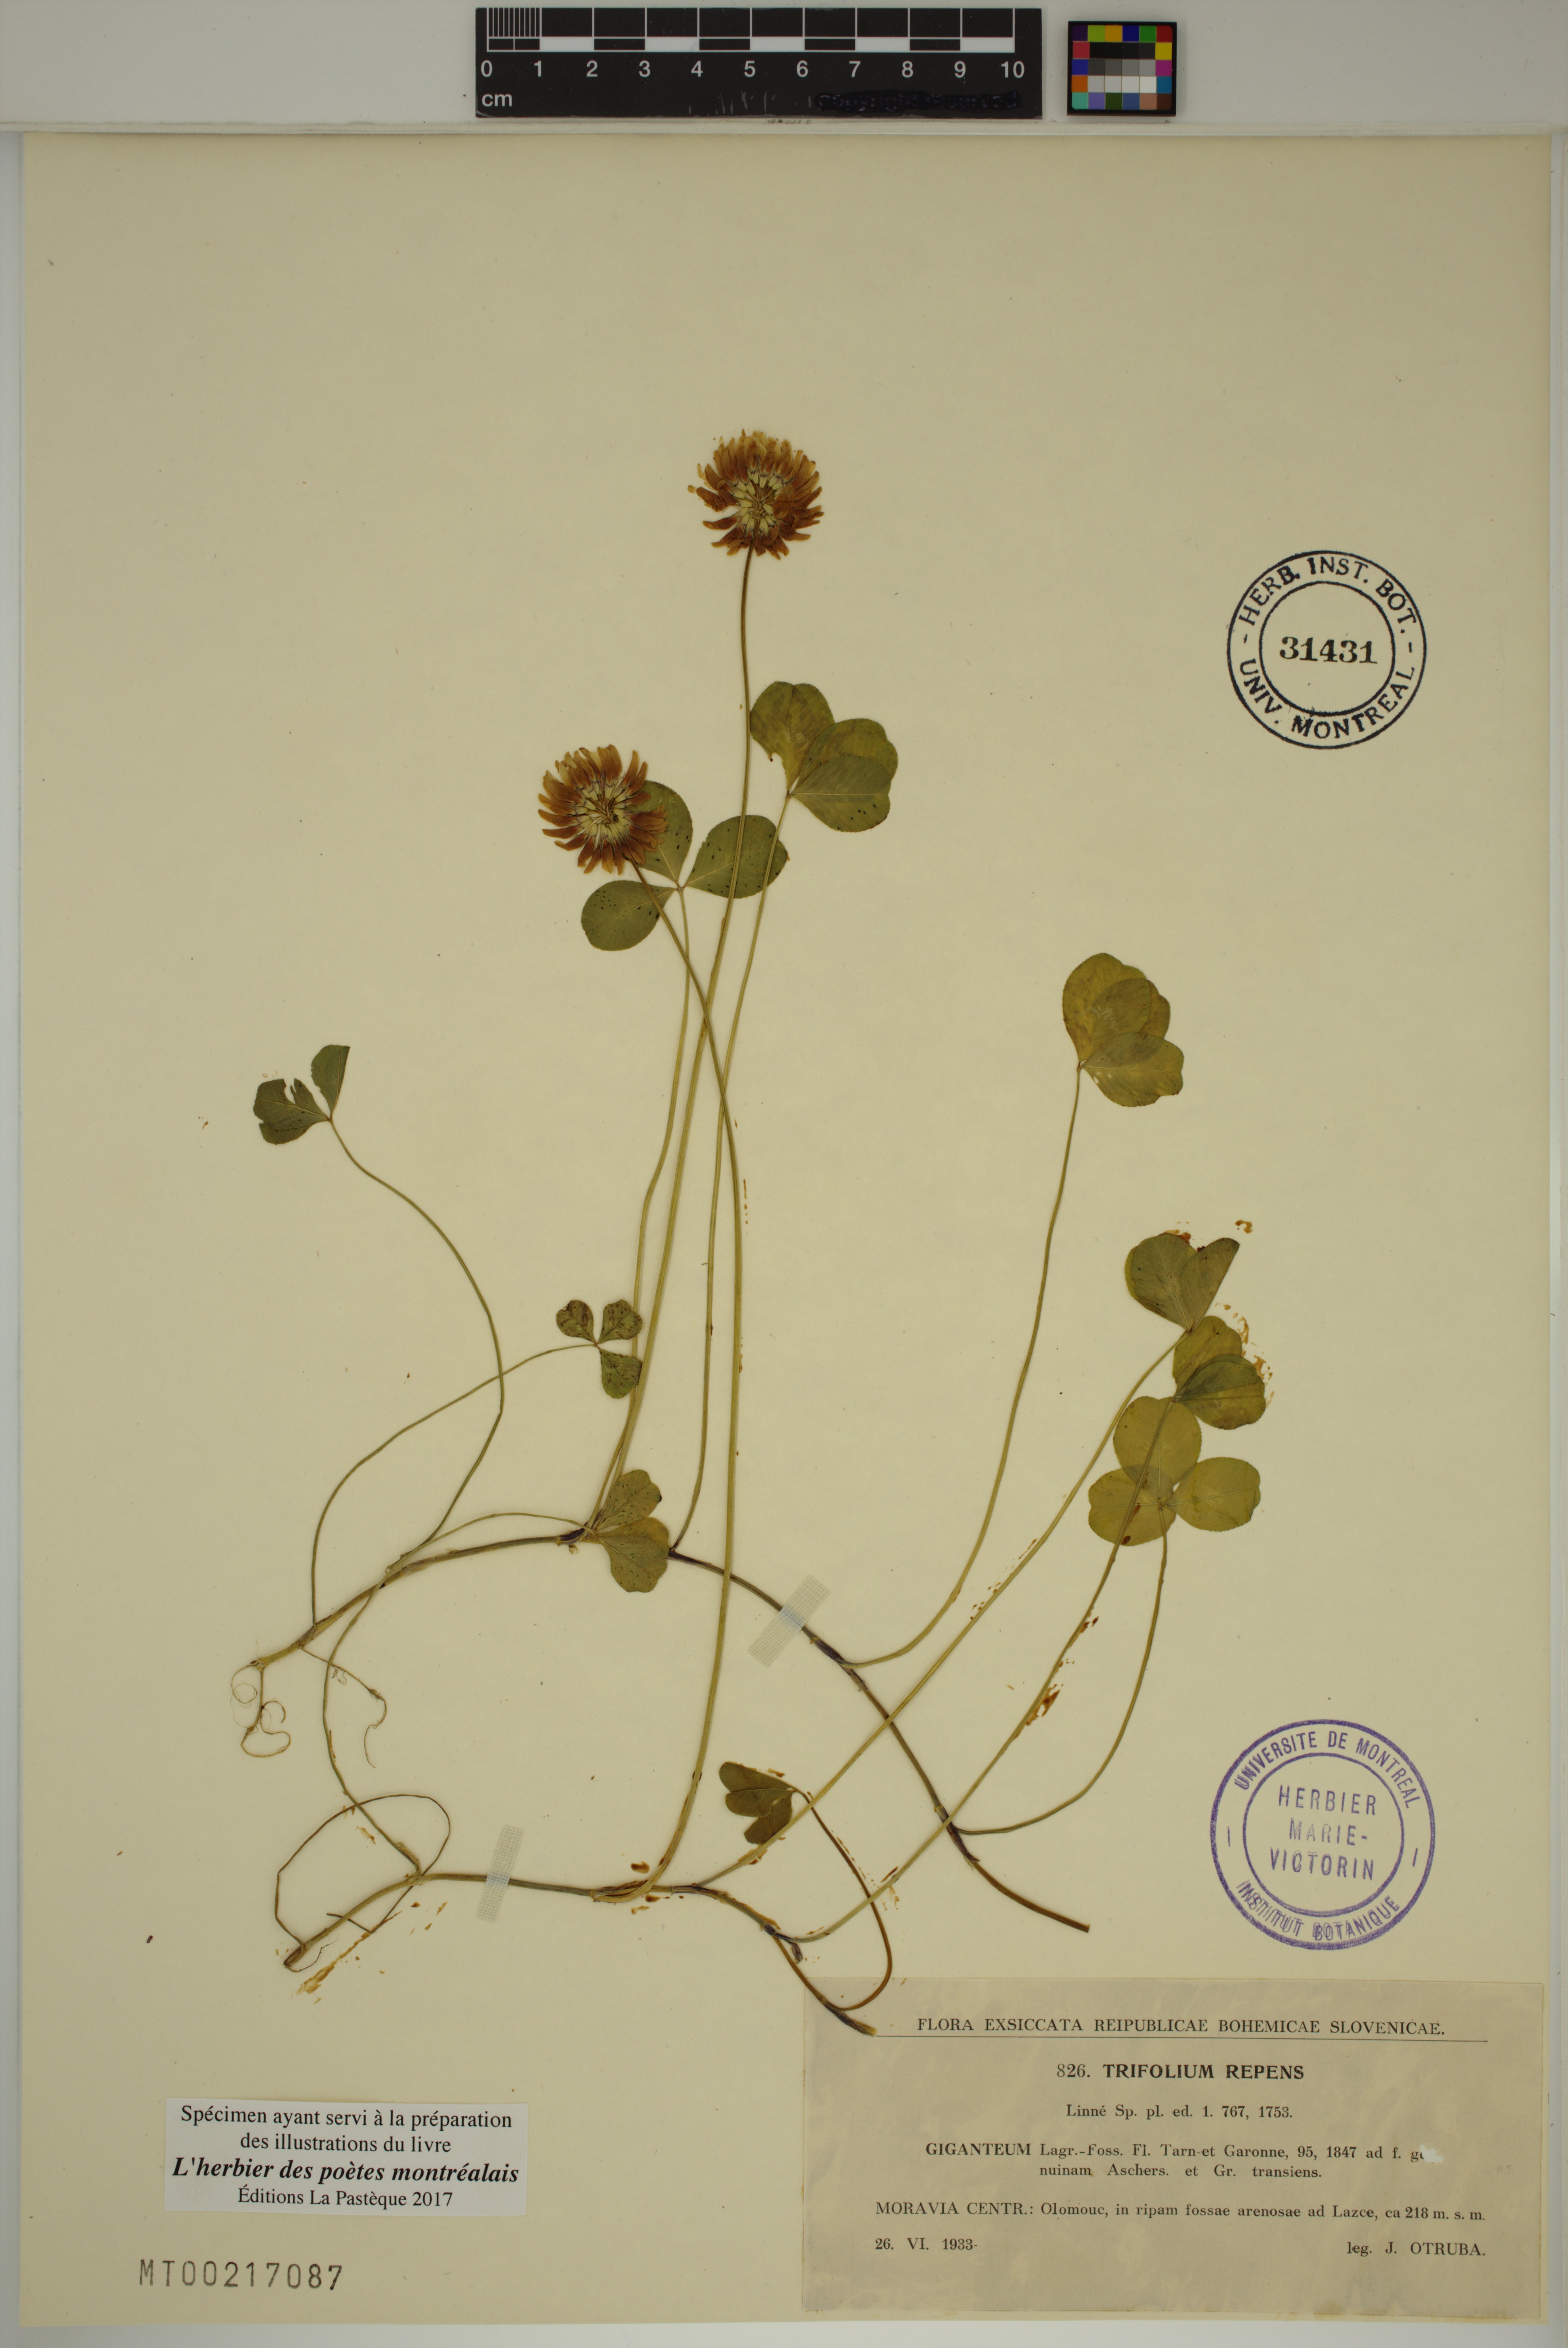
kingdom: Plantae
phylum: Tracheophyta
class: Magnoliopsida
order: Fabales
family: Fabaceae
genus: Trifolium
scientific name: Trifolium repens
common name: White clover
